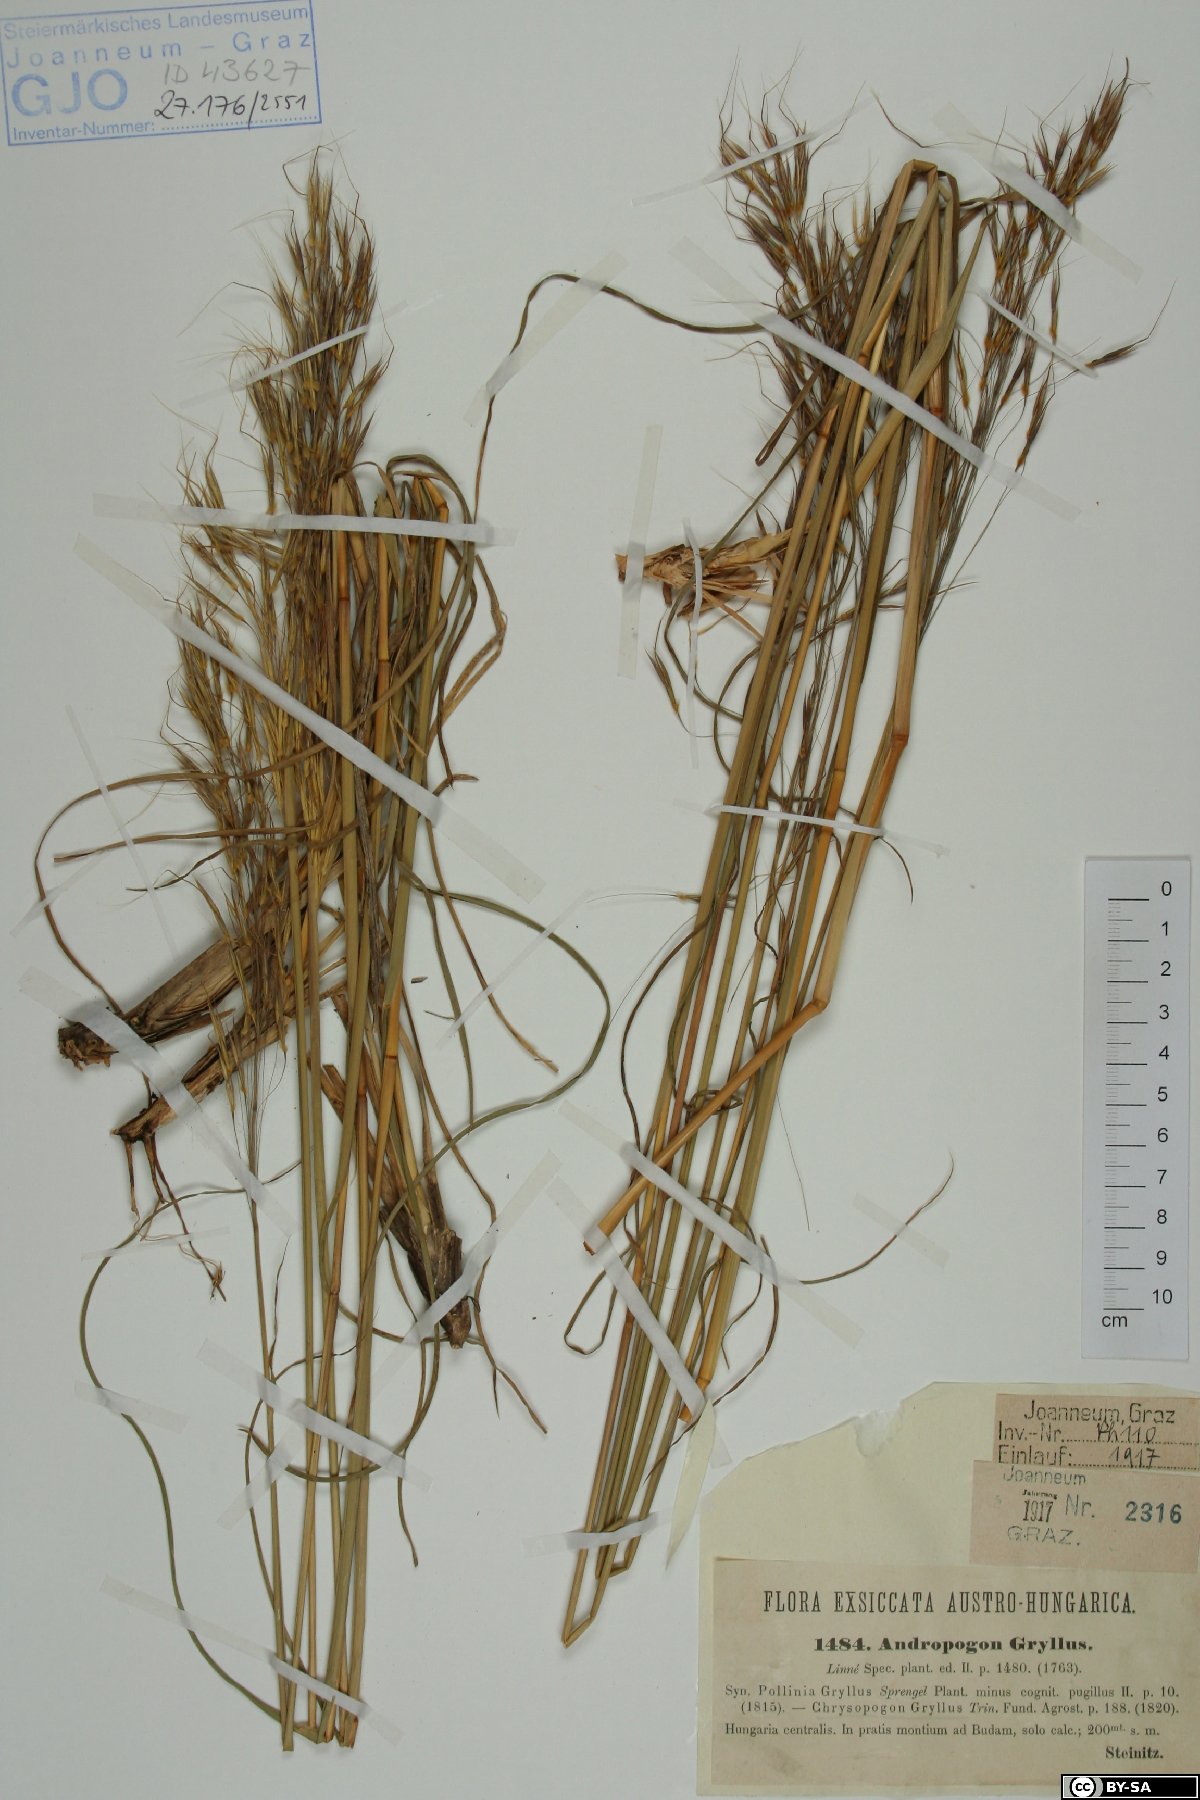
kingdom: Plantae
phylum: Tracheophyta
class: Liliopsida
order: Poales
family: Poaceae
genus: Chrysopogon
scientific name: Chrysopogon gryllus
